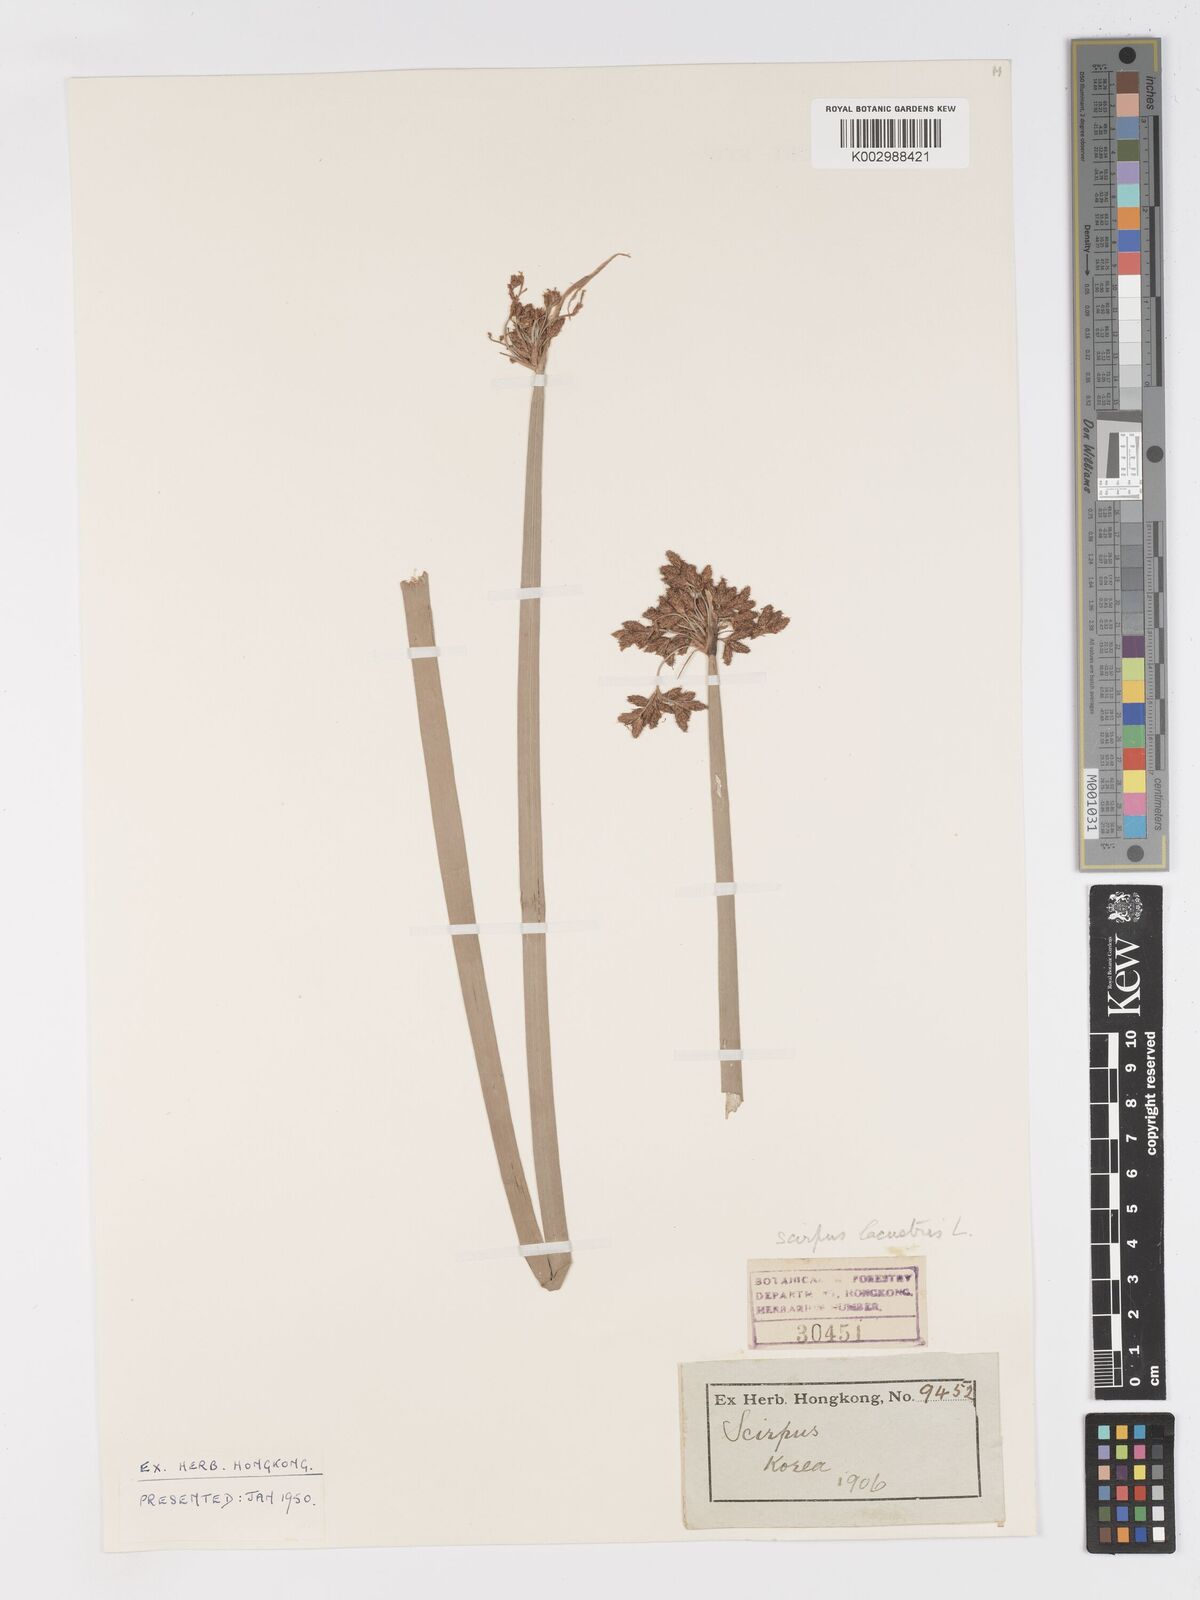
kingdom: Plantae
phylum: Tracheophyta
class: Liliopsida
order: Poales
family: Cyperaceae
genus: Schoenoplectus
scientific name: Schoenoplectus lacustris
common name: Common club-rush
